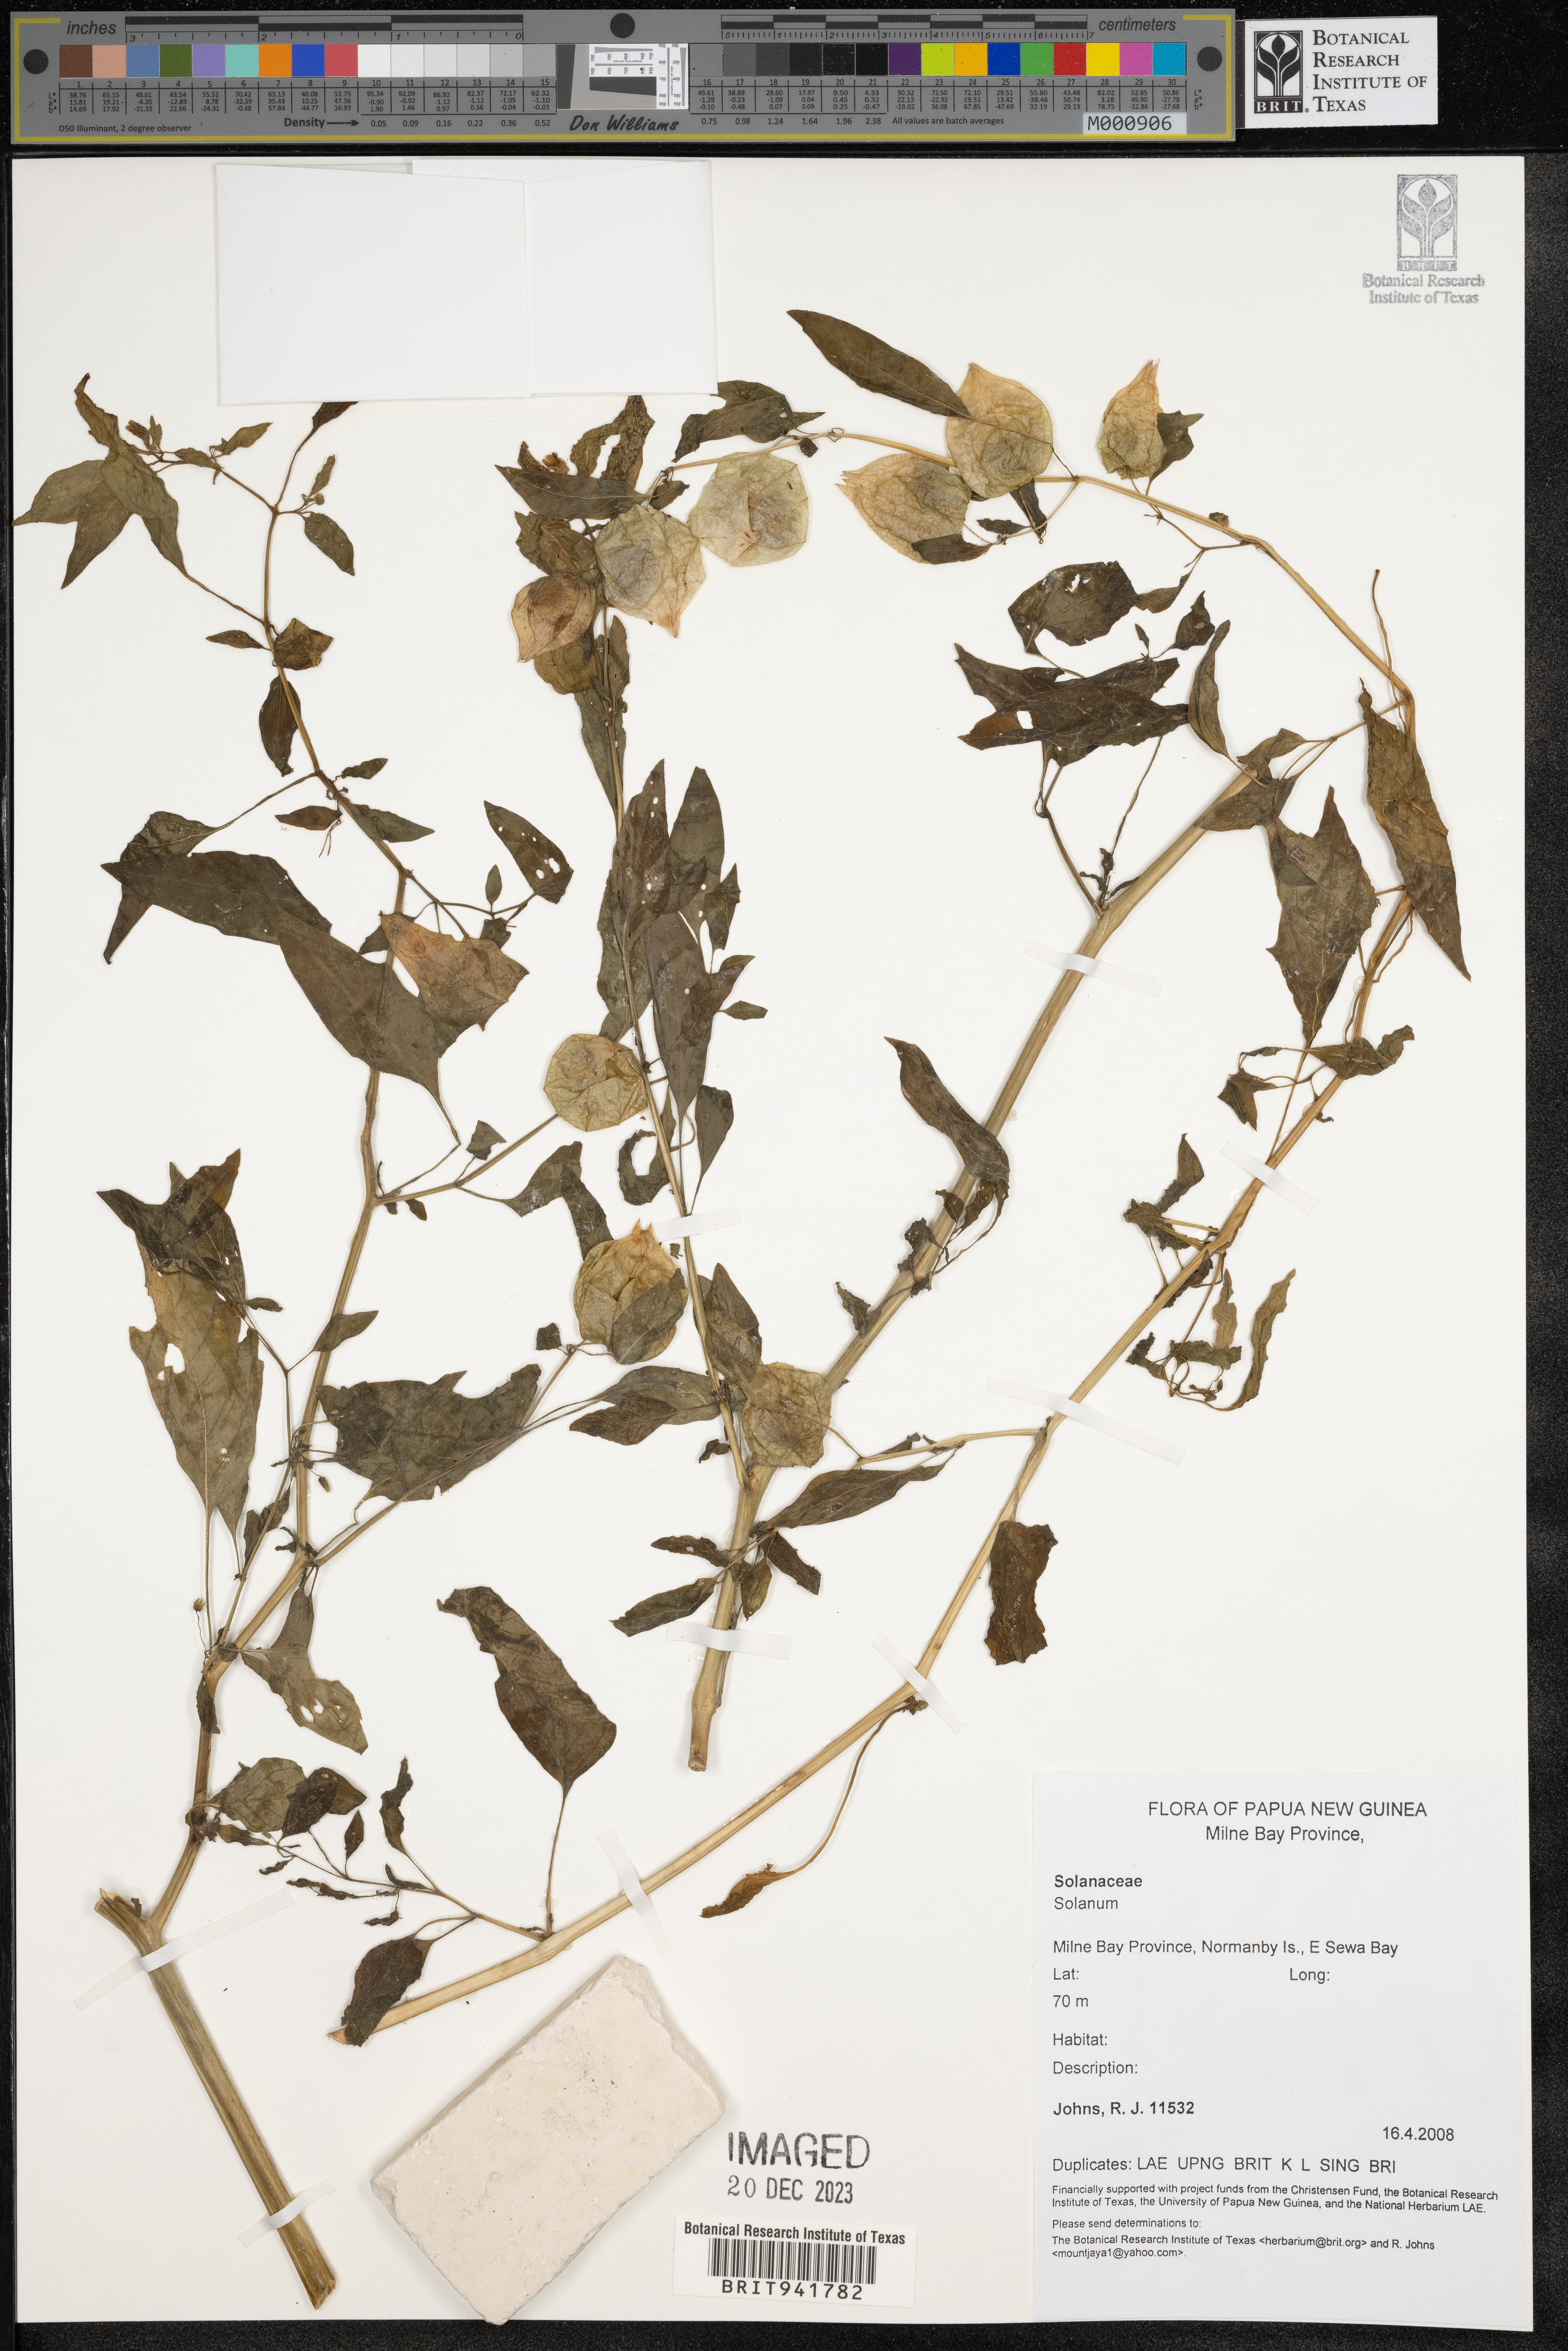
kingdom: Plantae
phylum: Tracheophyta
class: Magnoliopsida
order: Solanales
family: Solanaceae
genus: Solanum
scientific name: Solanum
